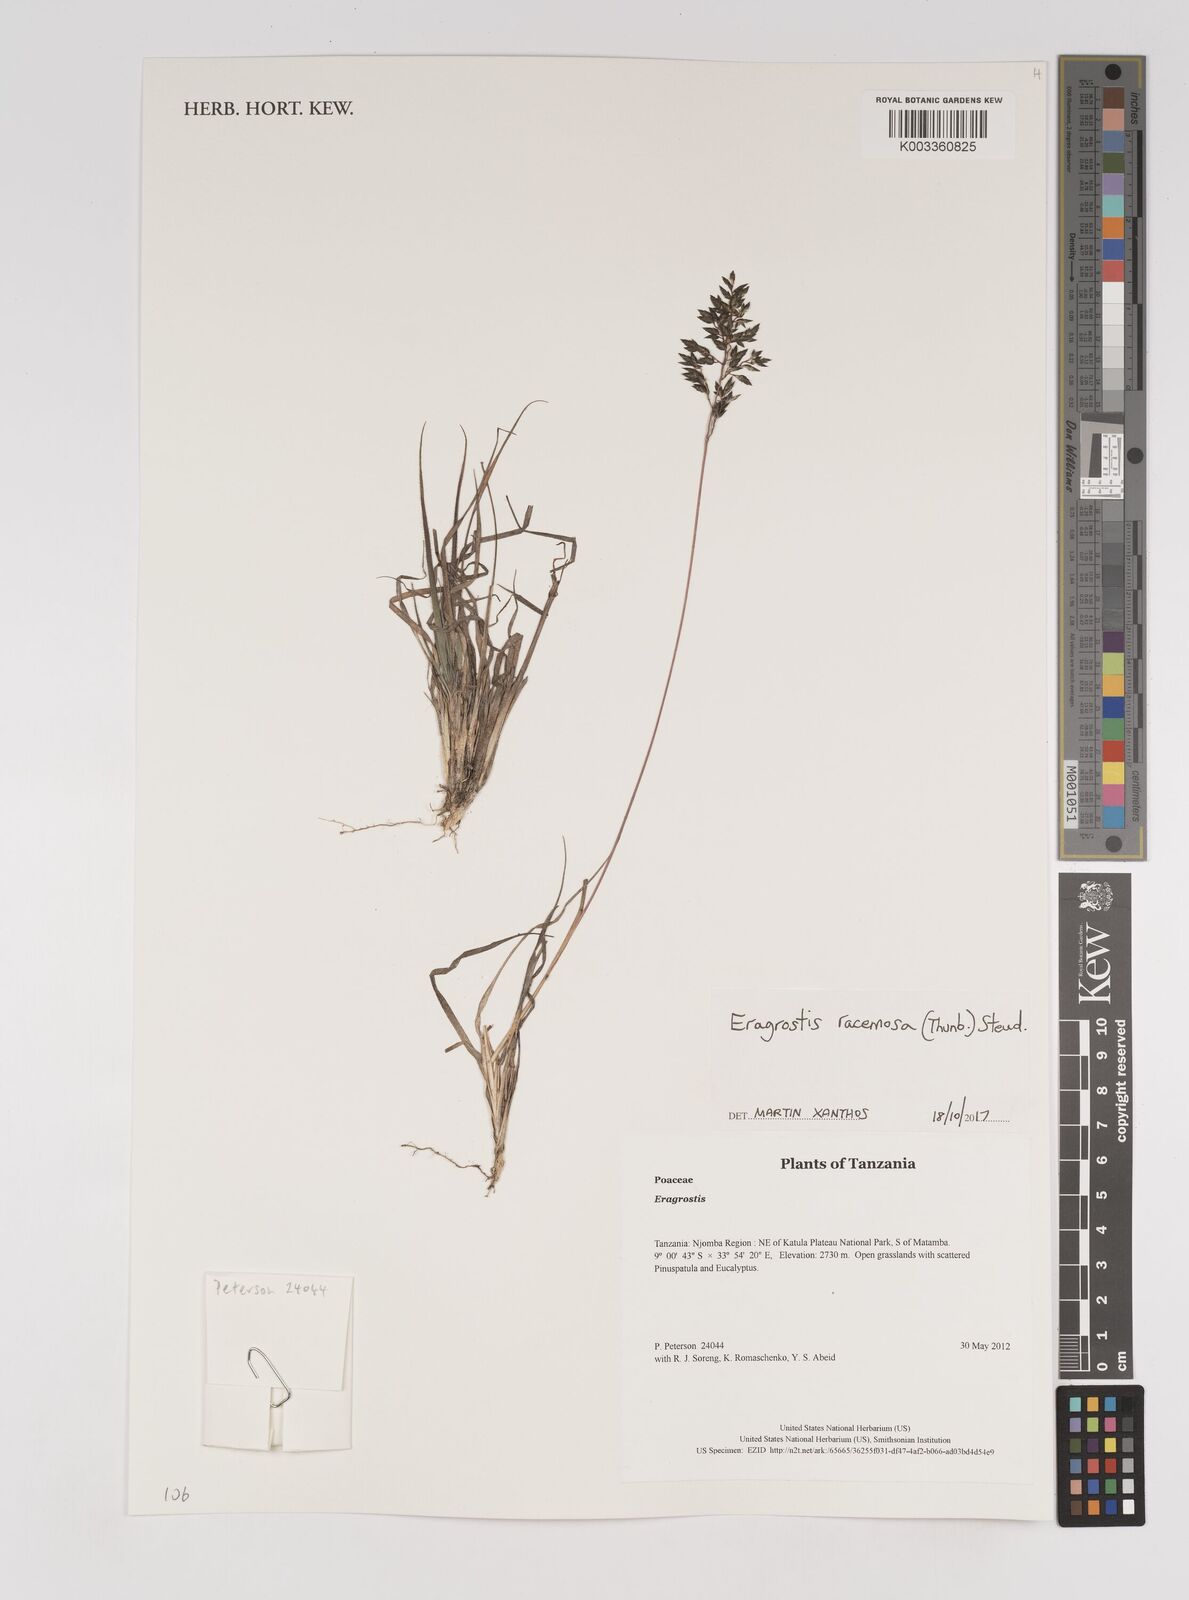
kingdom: Plantae
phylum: Tracheophyta
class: Liliopsida
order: Poales
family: Poaceae
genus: Eragrostis
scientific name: Eragrostis racemosa
